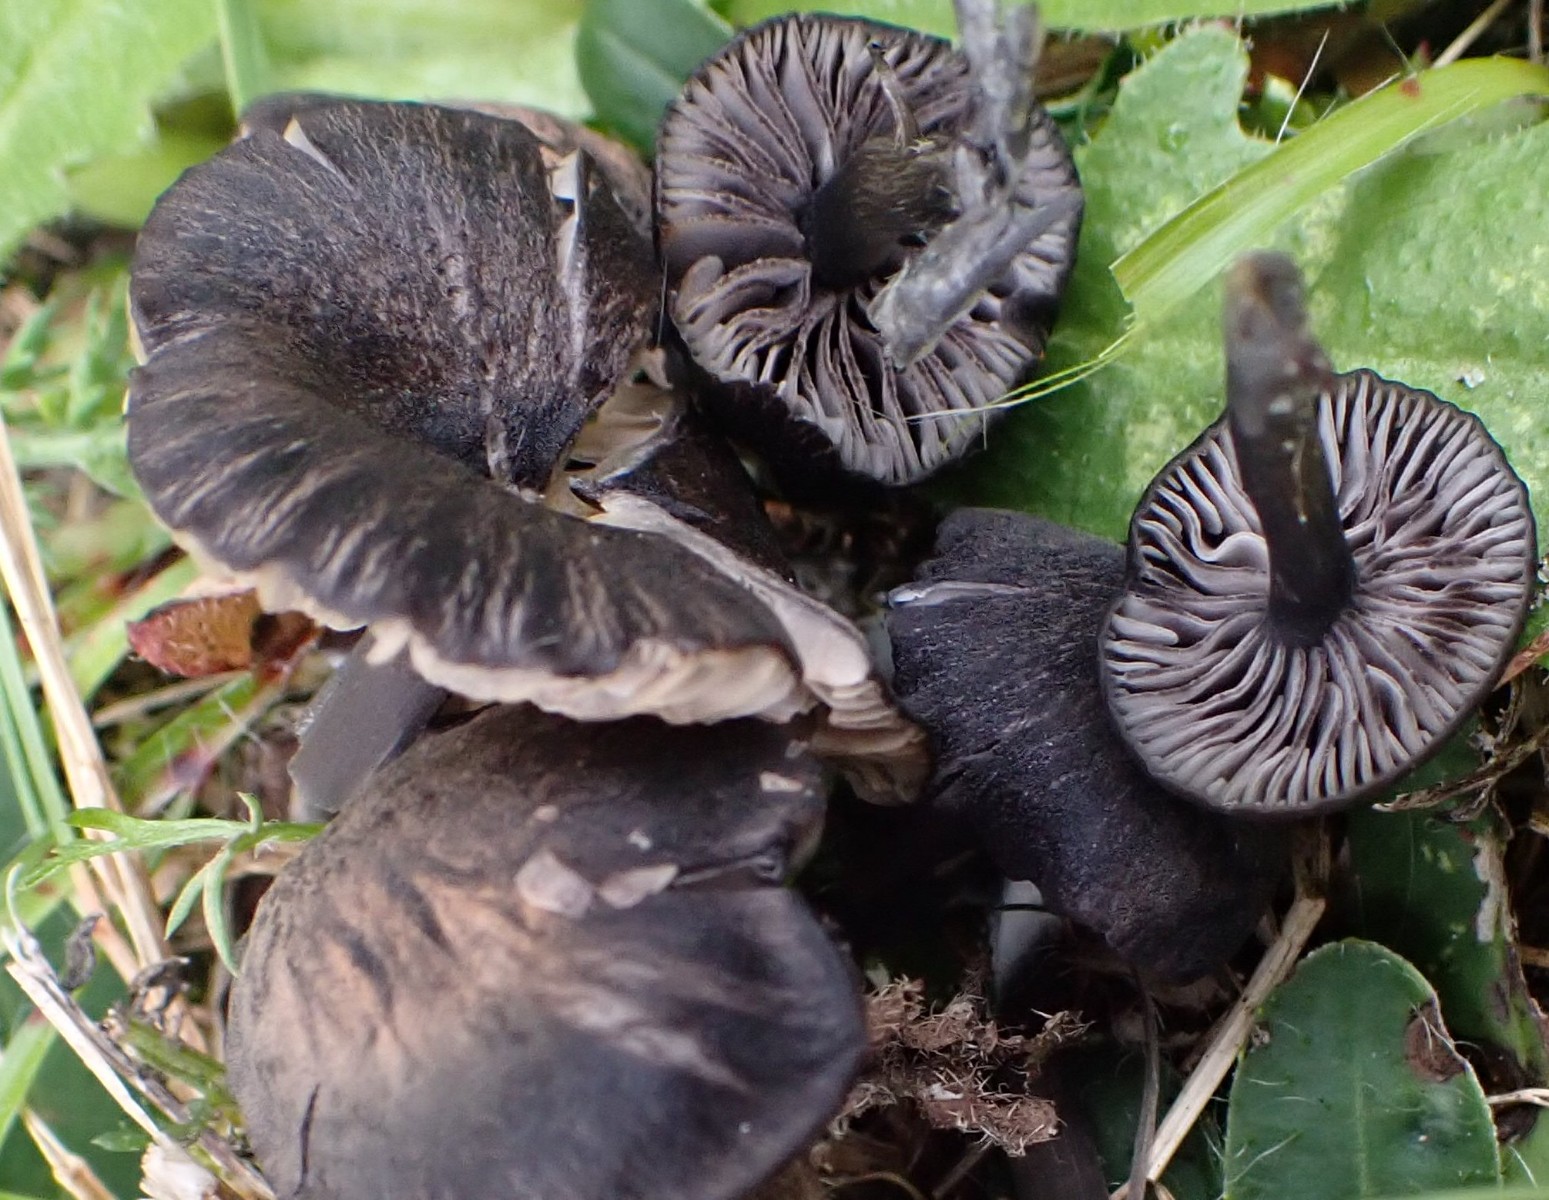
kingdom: Fungi
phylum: Basidiomycota
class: Agaricomycetes
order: Agaricales
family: Entolomataceae
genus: Entoloma
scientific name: Entoloma
